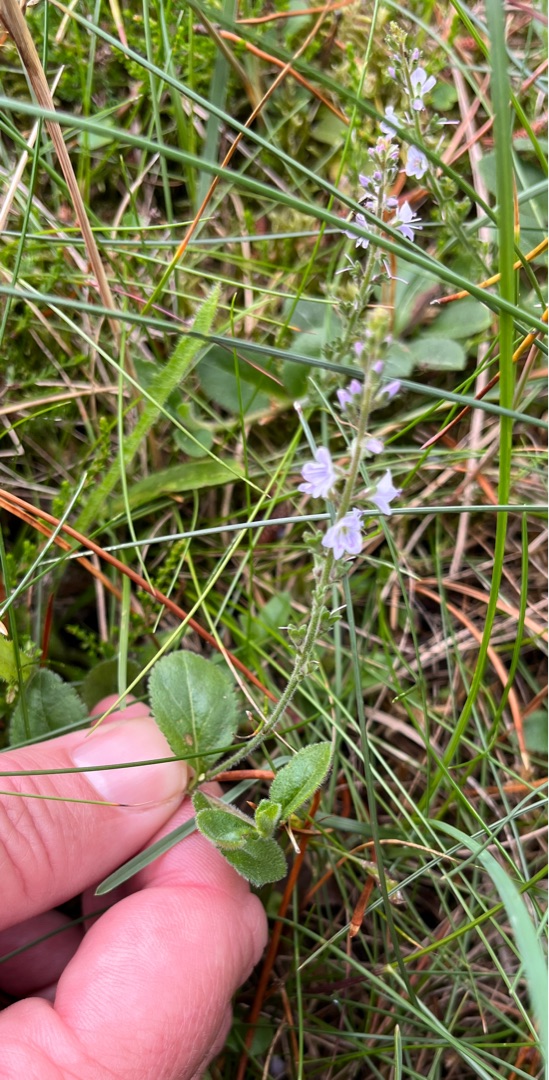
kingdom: Plantae
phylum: Tracheophyta
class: Magnoliopsida
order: Lamiales
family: Plantaginaceae
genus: Veronica
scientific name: Veronica officinalis
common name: Læge-ærenpris
